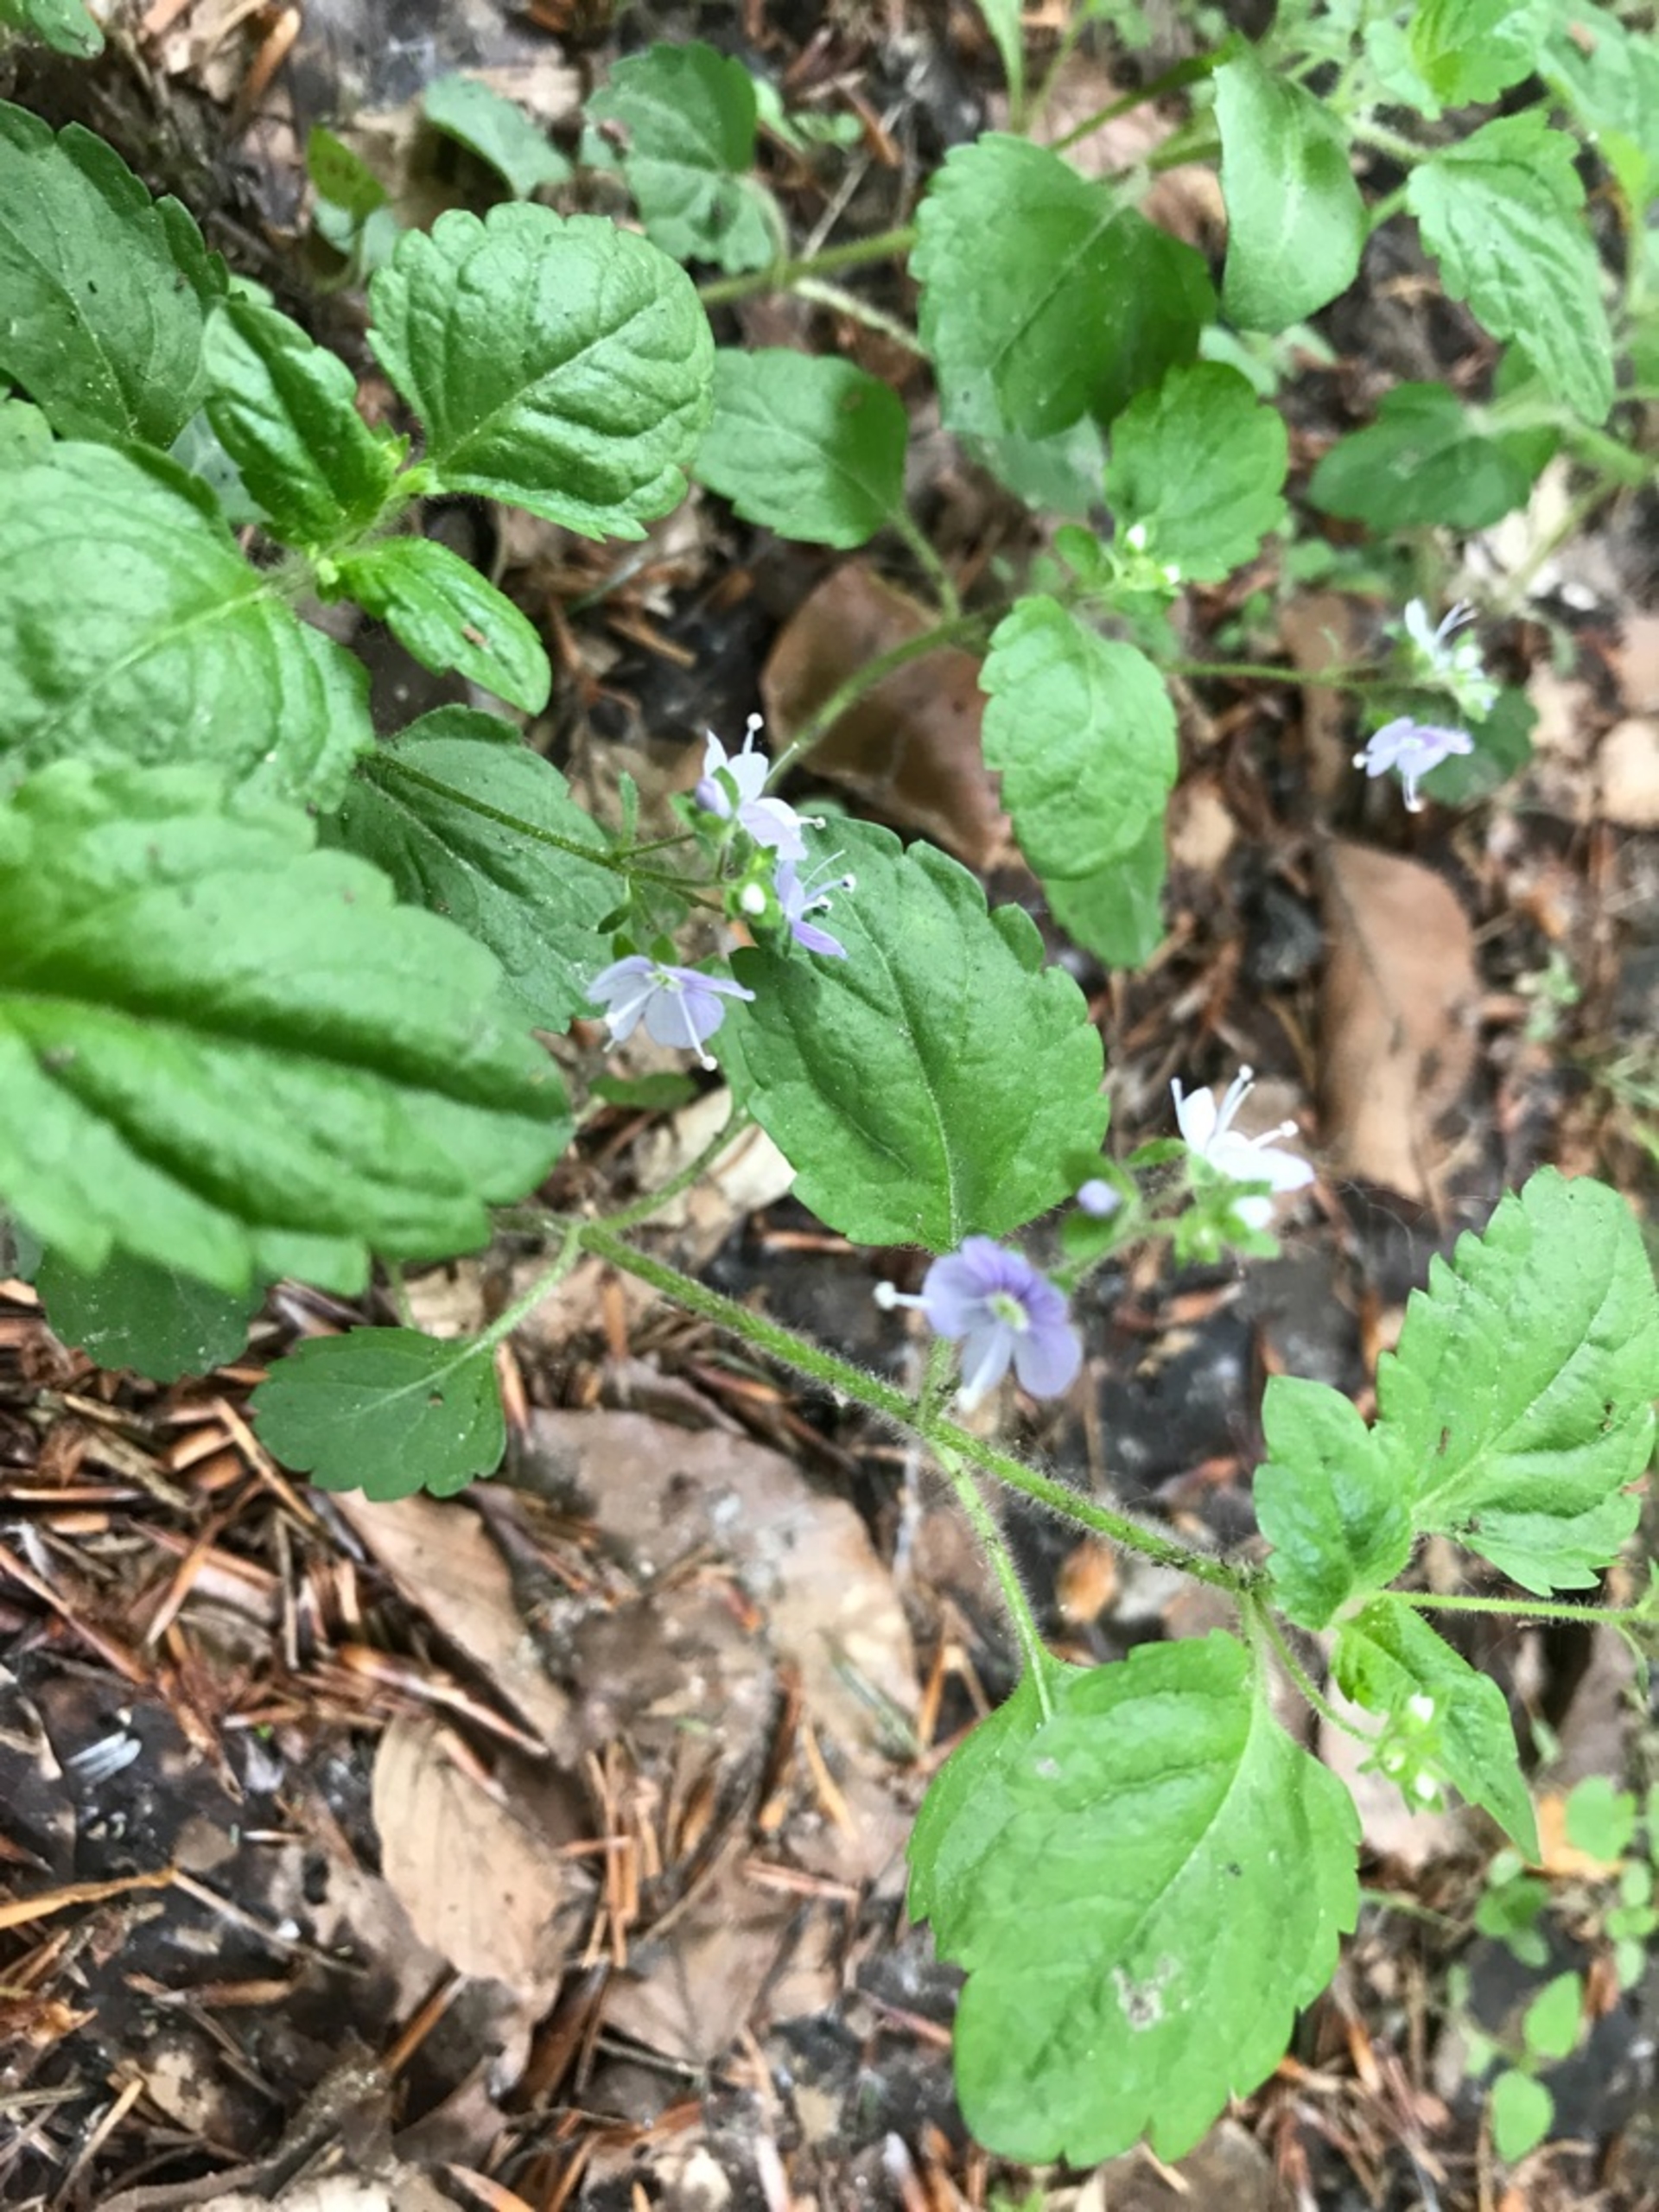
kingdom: Plantae
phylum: Tracheophyta
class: Magnoliopsida
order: Lamiales
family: Plantaginaceae
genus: Veronica
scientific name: Veronica officinalis
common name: Læge-ærenpris
